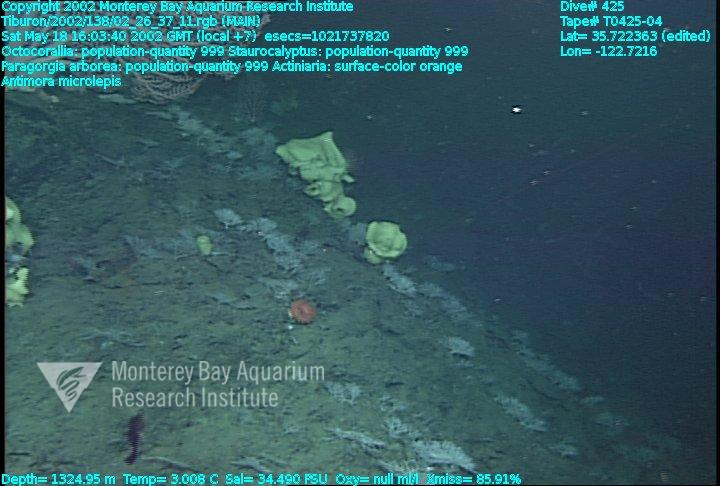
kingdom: Animalia
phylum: Porifera
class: Hexactinellida
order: Lyssacinosida
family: Rossellidae
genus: Staurocalyptus
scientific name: Staurocalyptus
